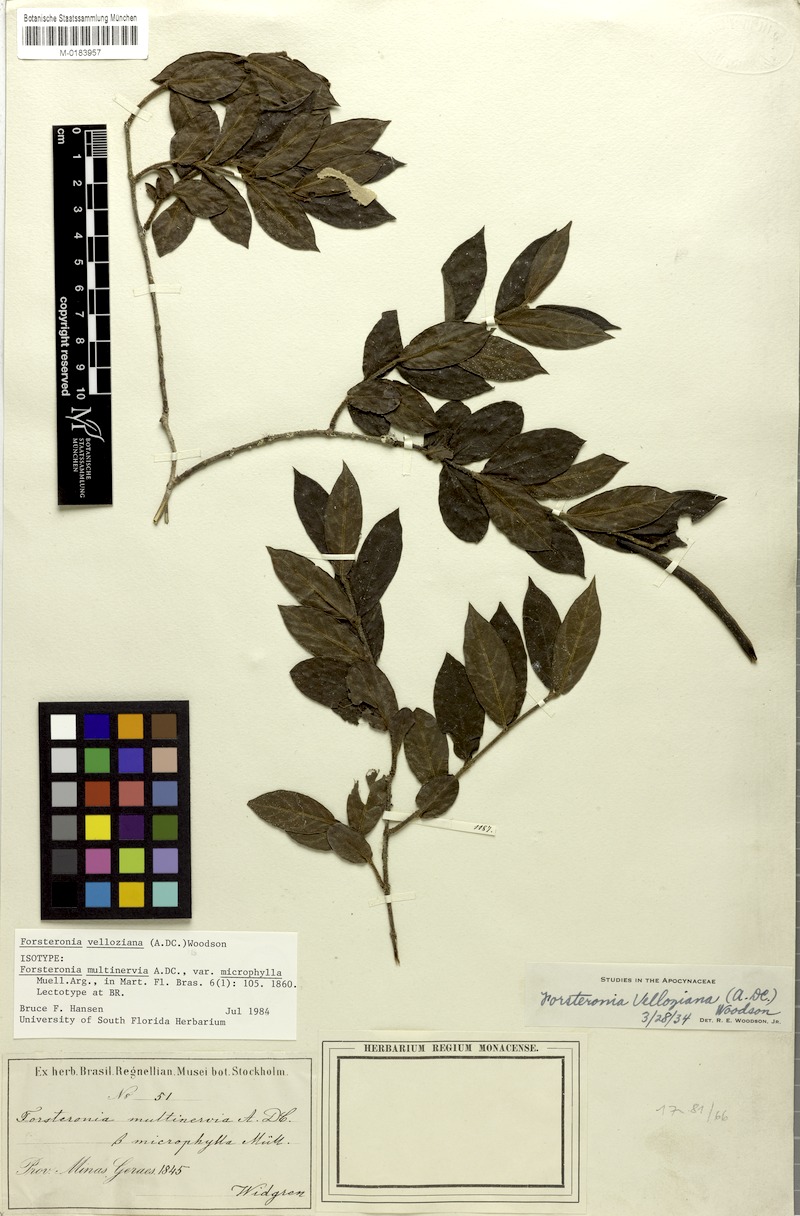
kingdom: Plantae
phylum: Tracheophyta
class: Magnoliopsida
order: Gentianales
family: Apocynaceae
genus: Forsteronia
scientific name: Forsteronia velloziana
